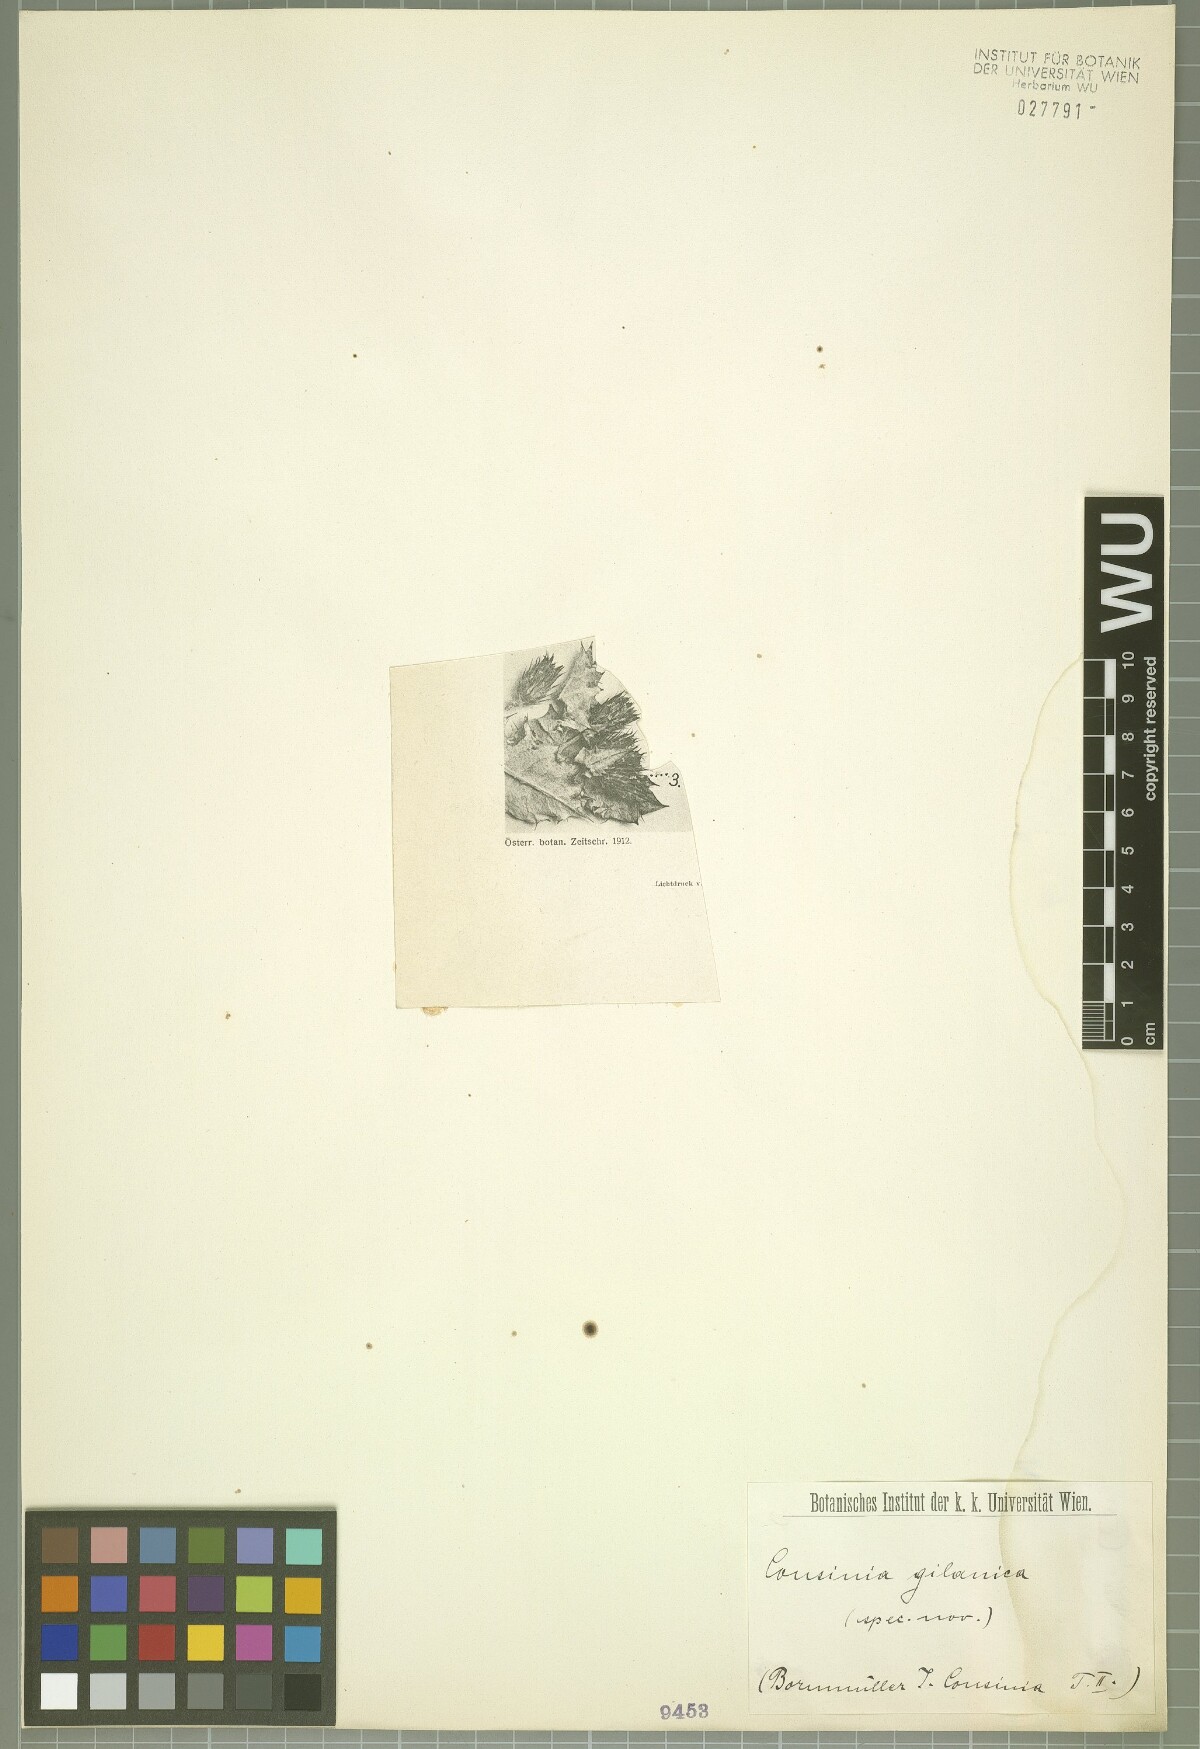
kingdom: Plantae
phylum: Tracheophyta
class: Magnoliopsida
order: Asterales
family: Asteraceae
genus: Cousinia
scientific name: Cousinia gilanica
